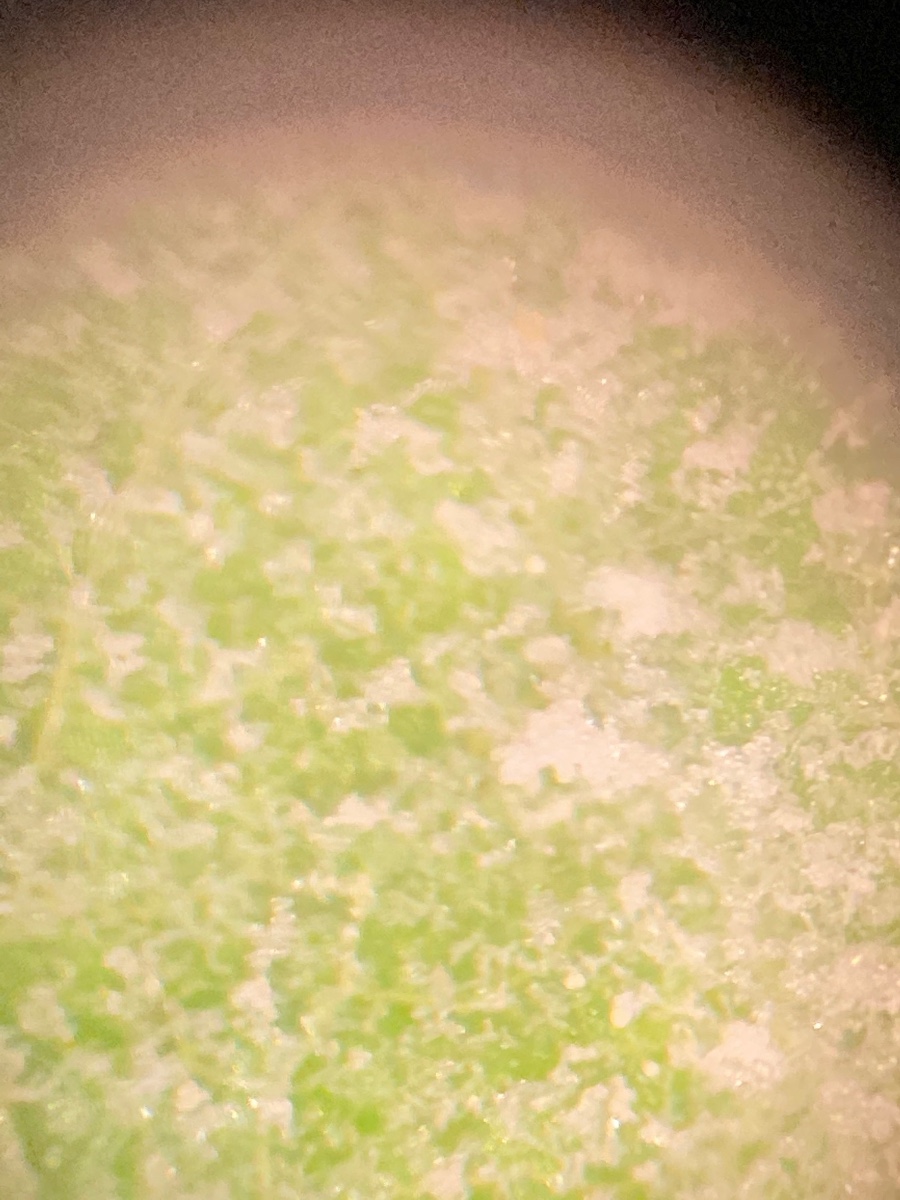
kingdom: Fungi
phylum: Ascomycota
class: Leotiomycetes
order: Helotiales
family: Erysiphaceae
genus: Podosphaera
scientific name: Podosphaera filipendulae
